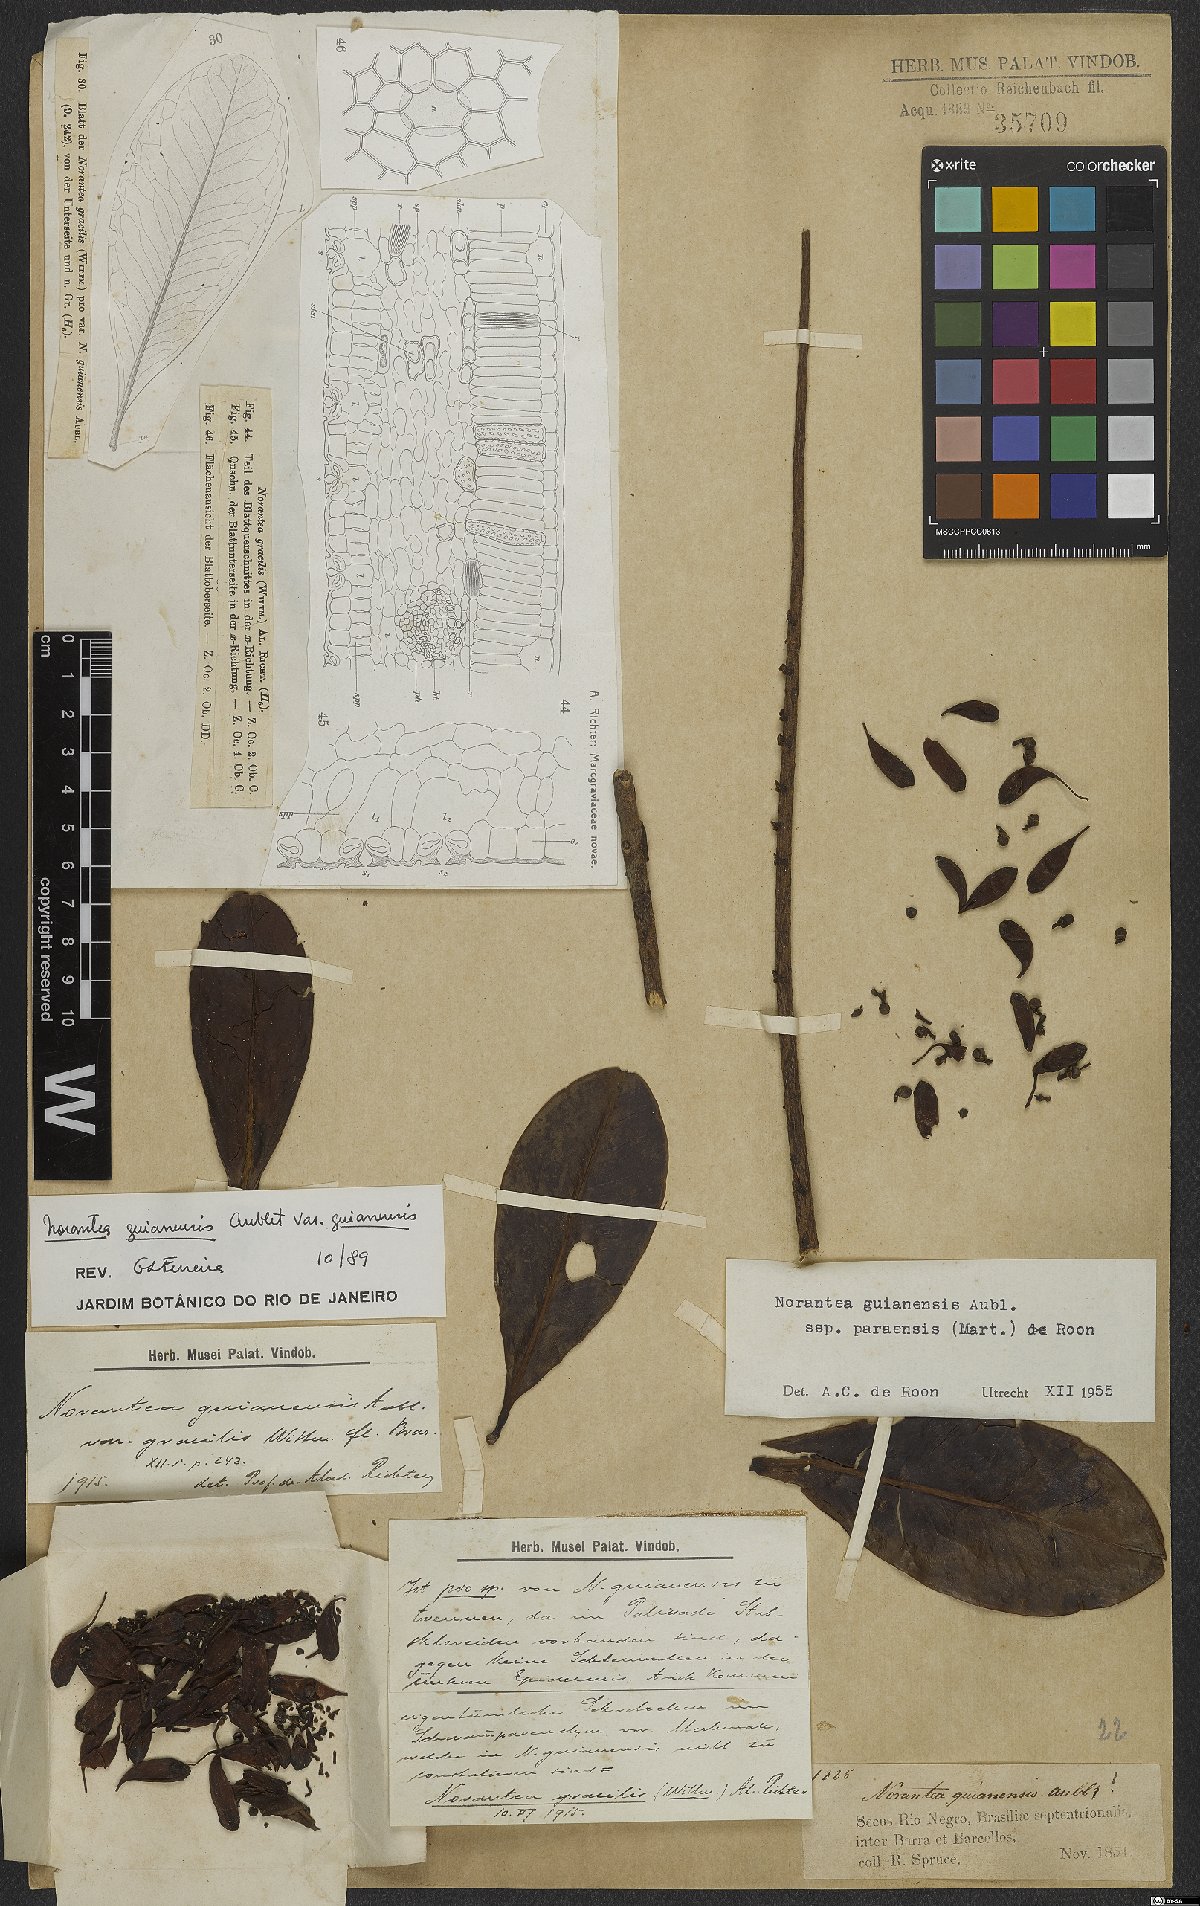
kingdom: Plantae
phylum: Tracheophyta
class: Magnoliopsida
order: Ericales
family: Marcgraviaceae
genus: Norantea
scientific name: Norantea guianensis
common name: Red hot poker vine
